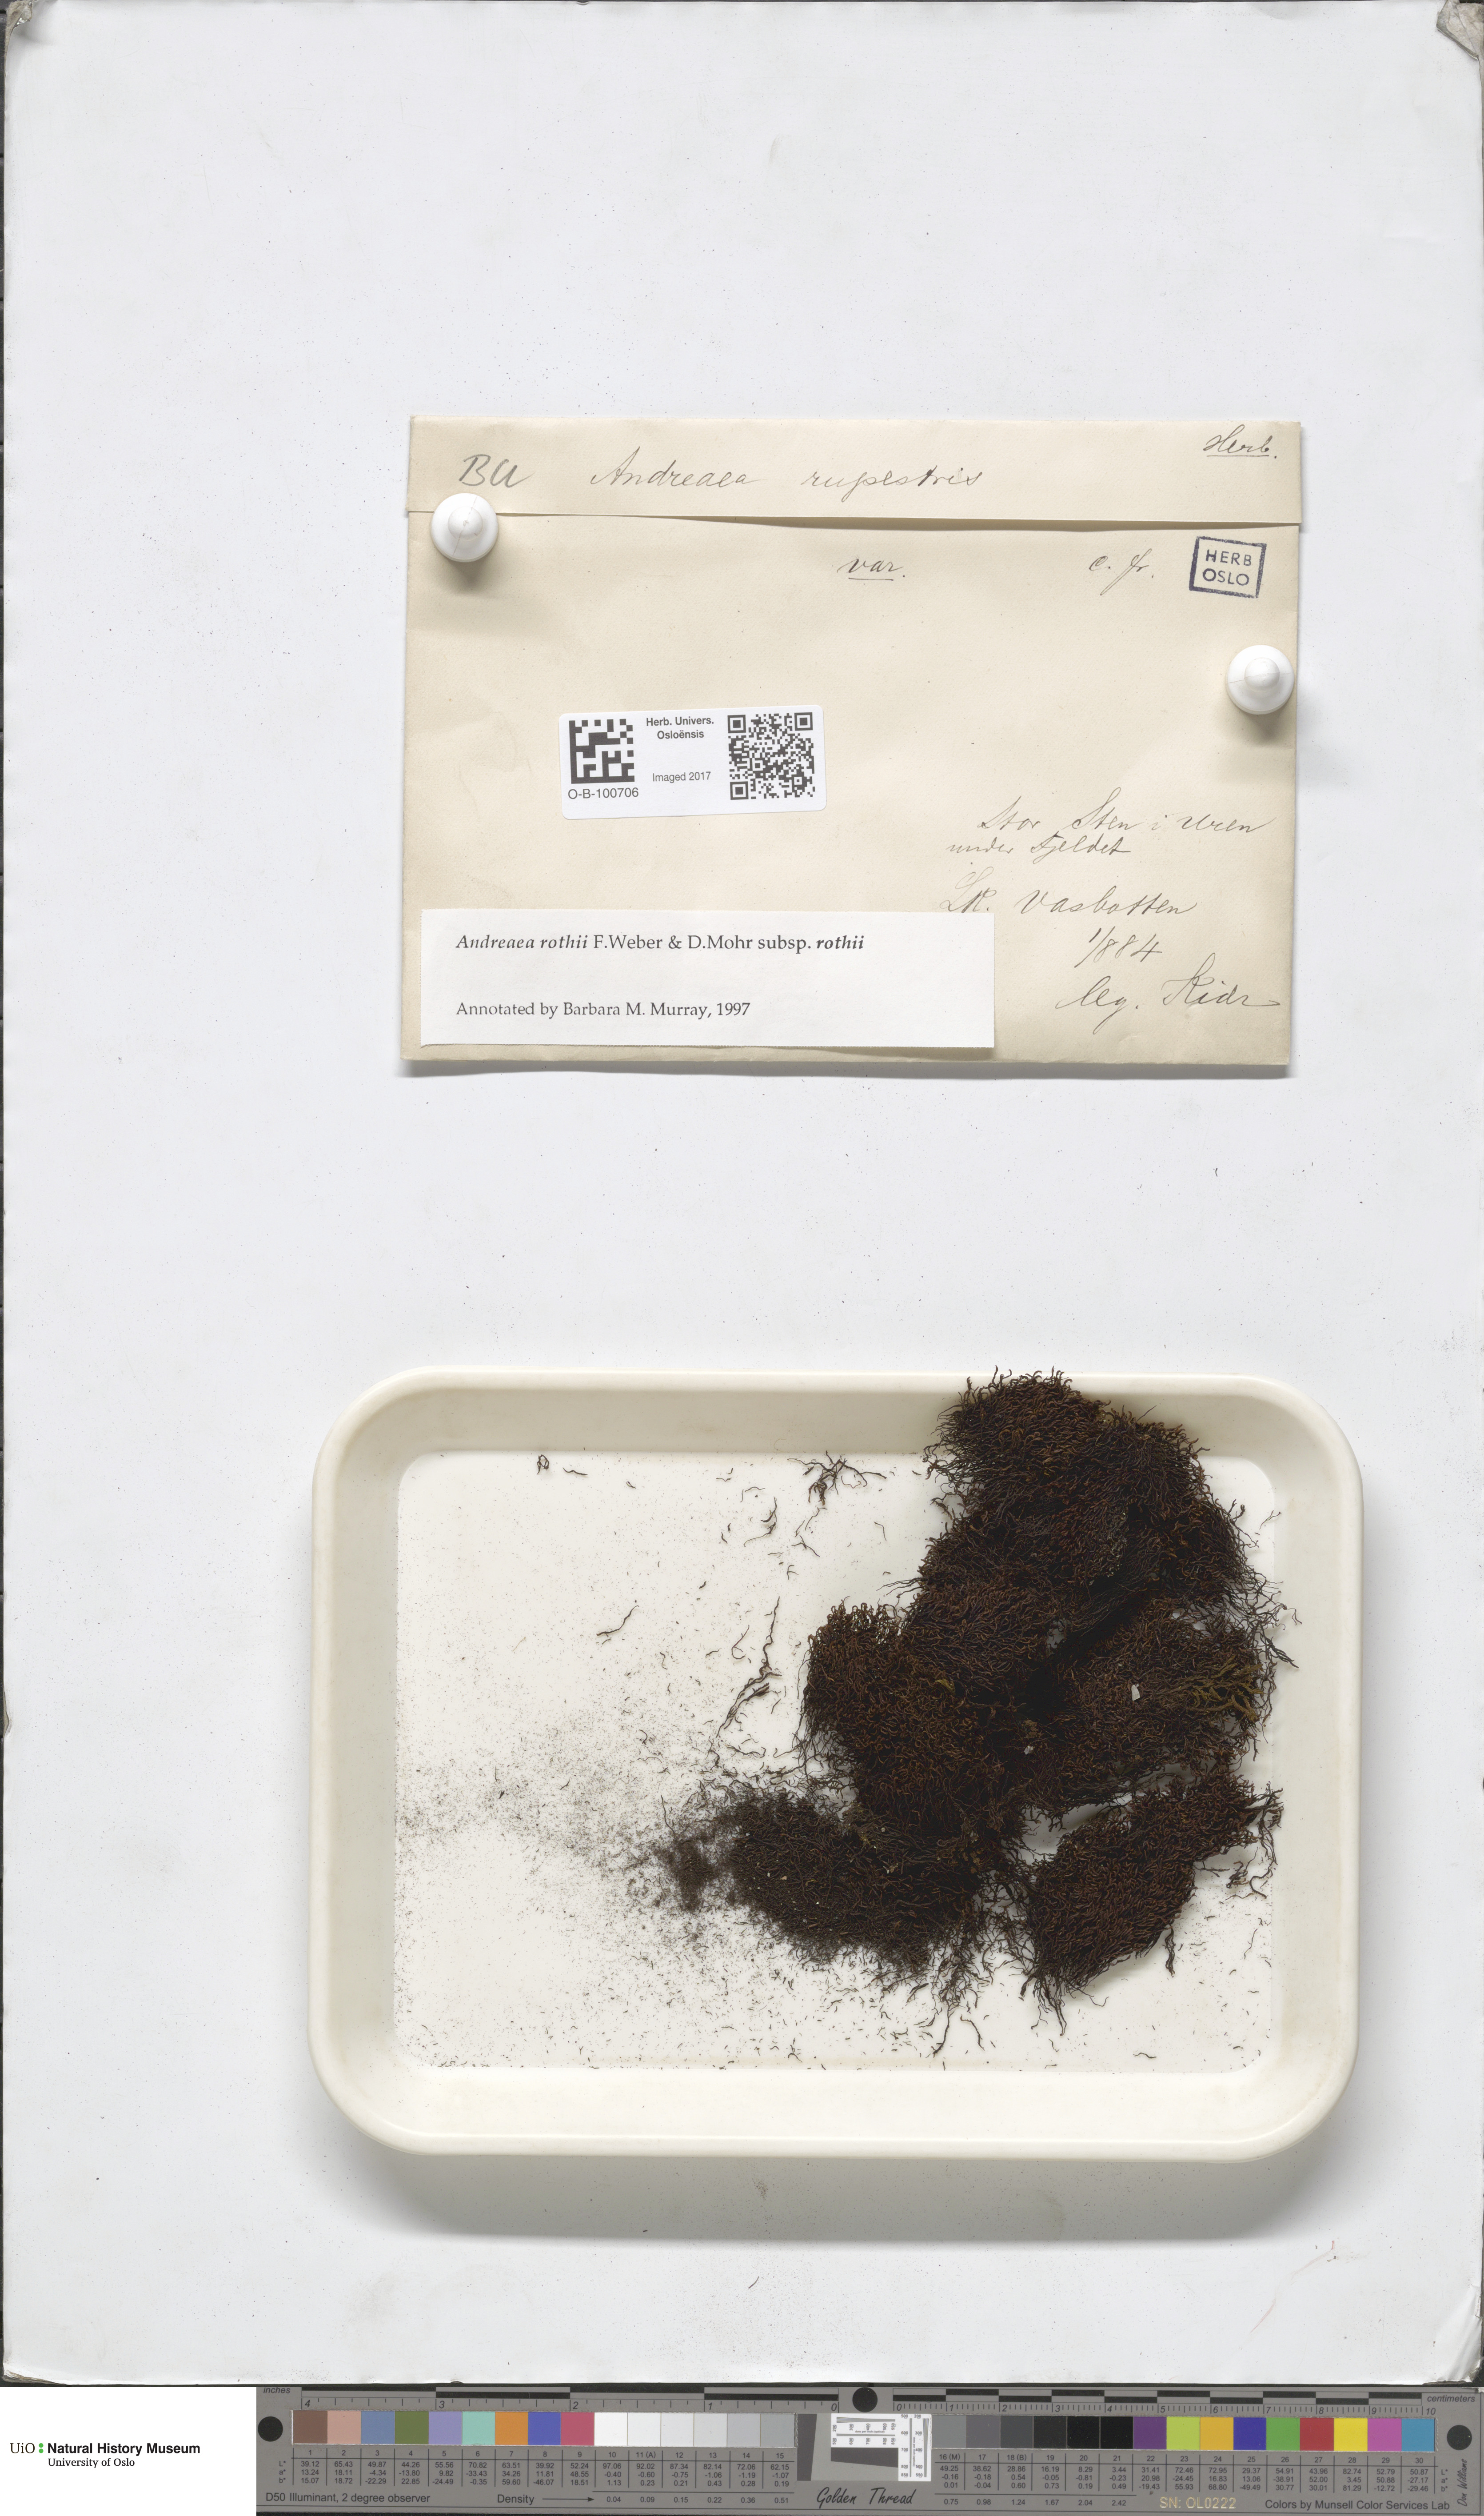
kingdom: Plantae
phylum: Bryophyta
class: Andreaeopsida
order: Andreaeales
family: Andreaeaceae
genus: Andreaea
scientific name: Andreaea rothii
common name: Dusky rock moss
